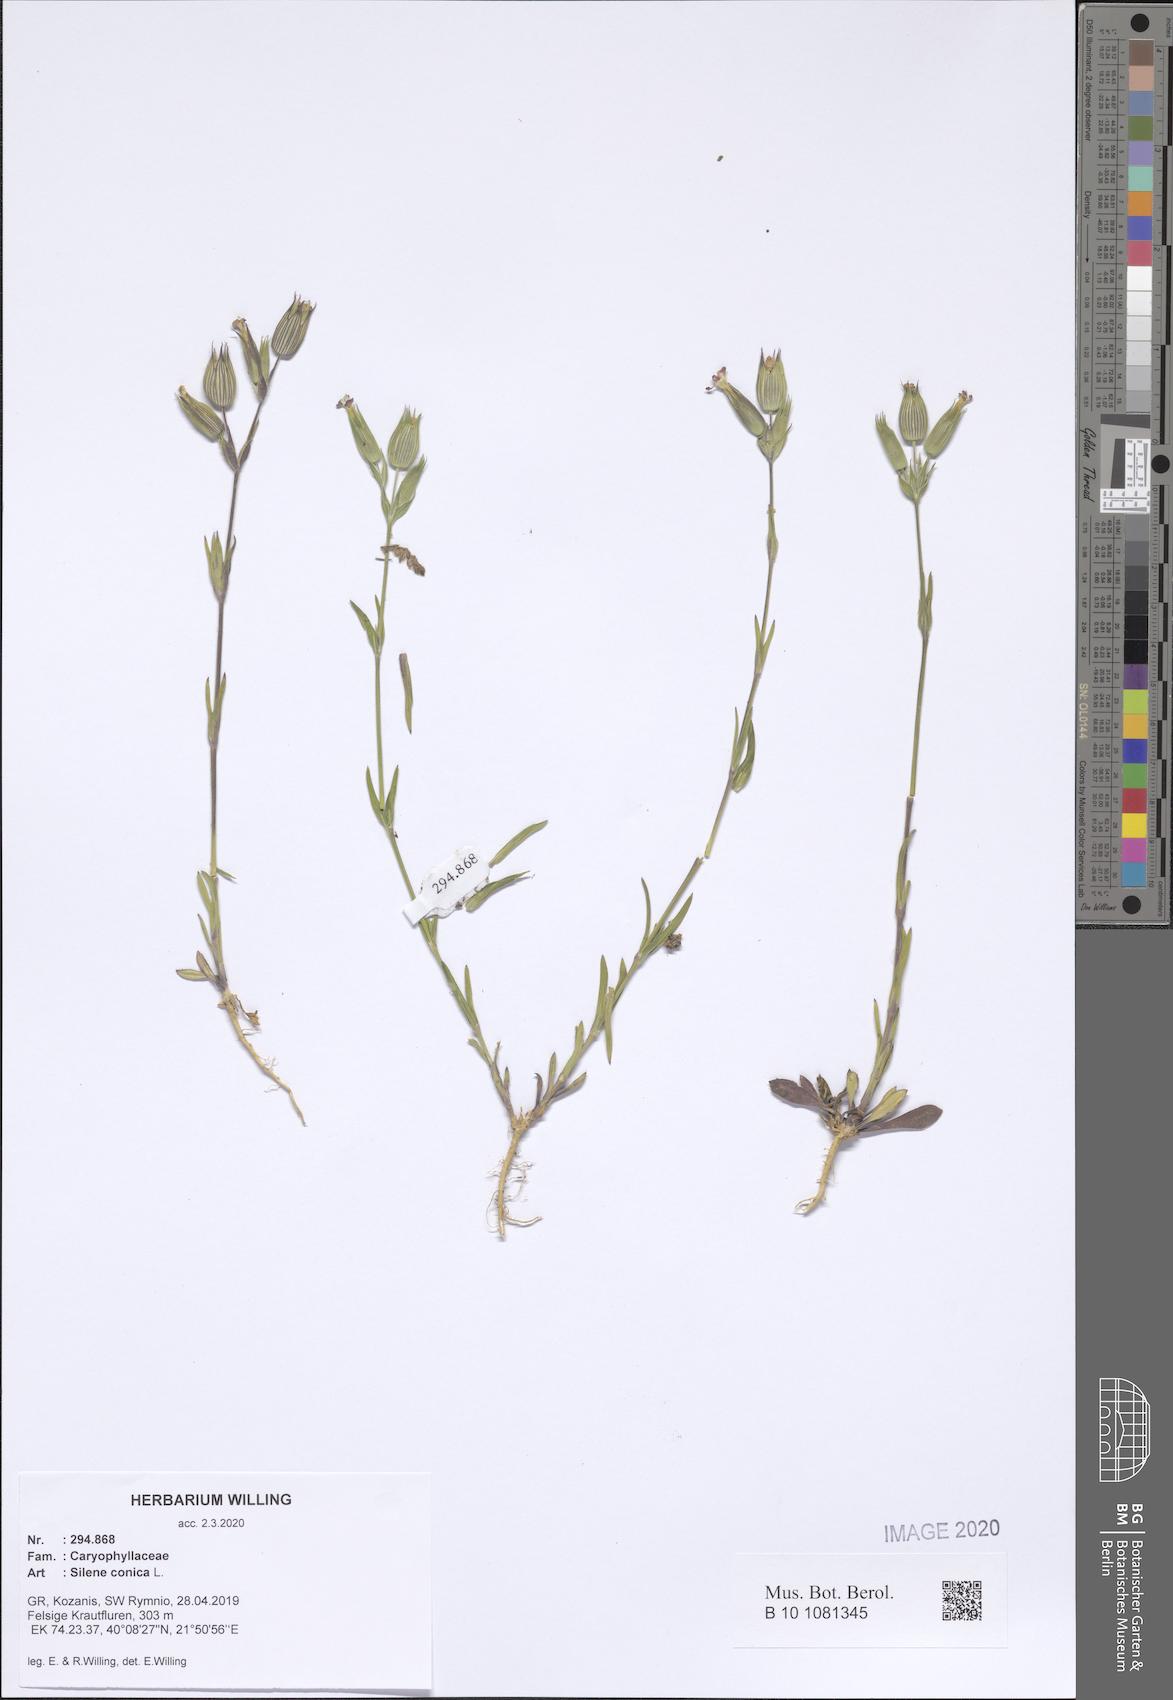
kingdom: Plantae
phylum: Tracheophyta
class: Magnoliopsida
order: Caryophyllales
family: Caryophyllaceae
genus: Silene
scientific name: Silene conica
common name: Sand catchfly
